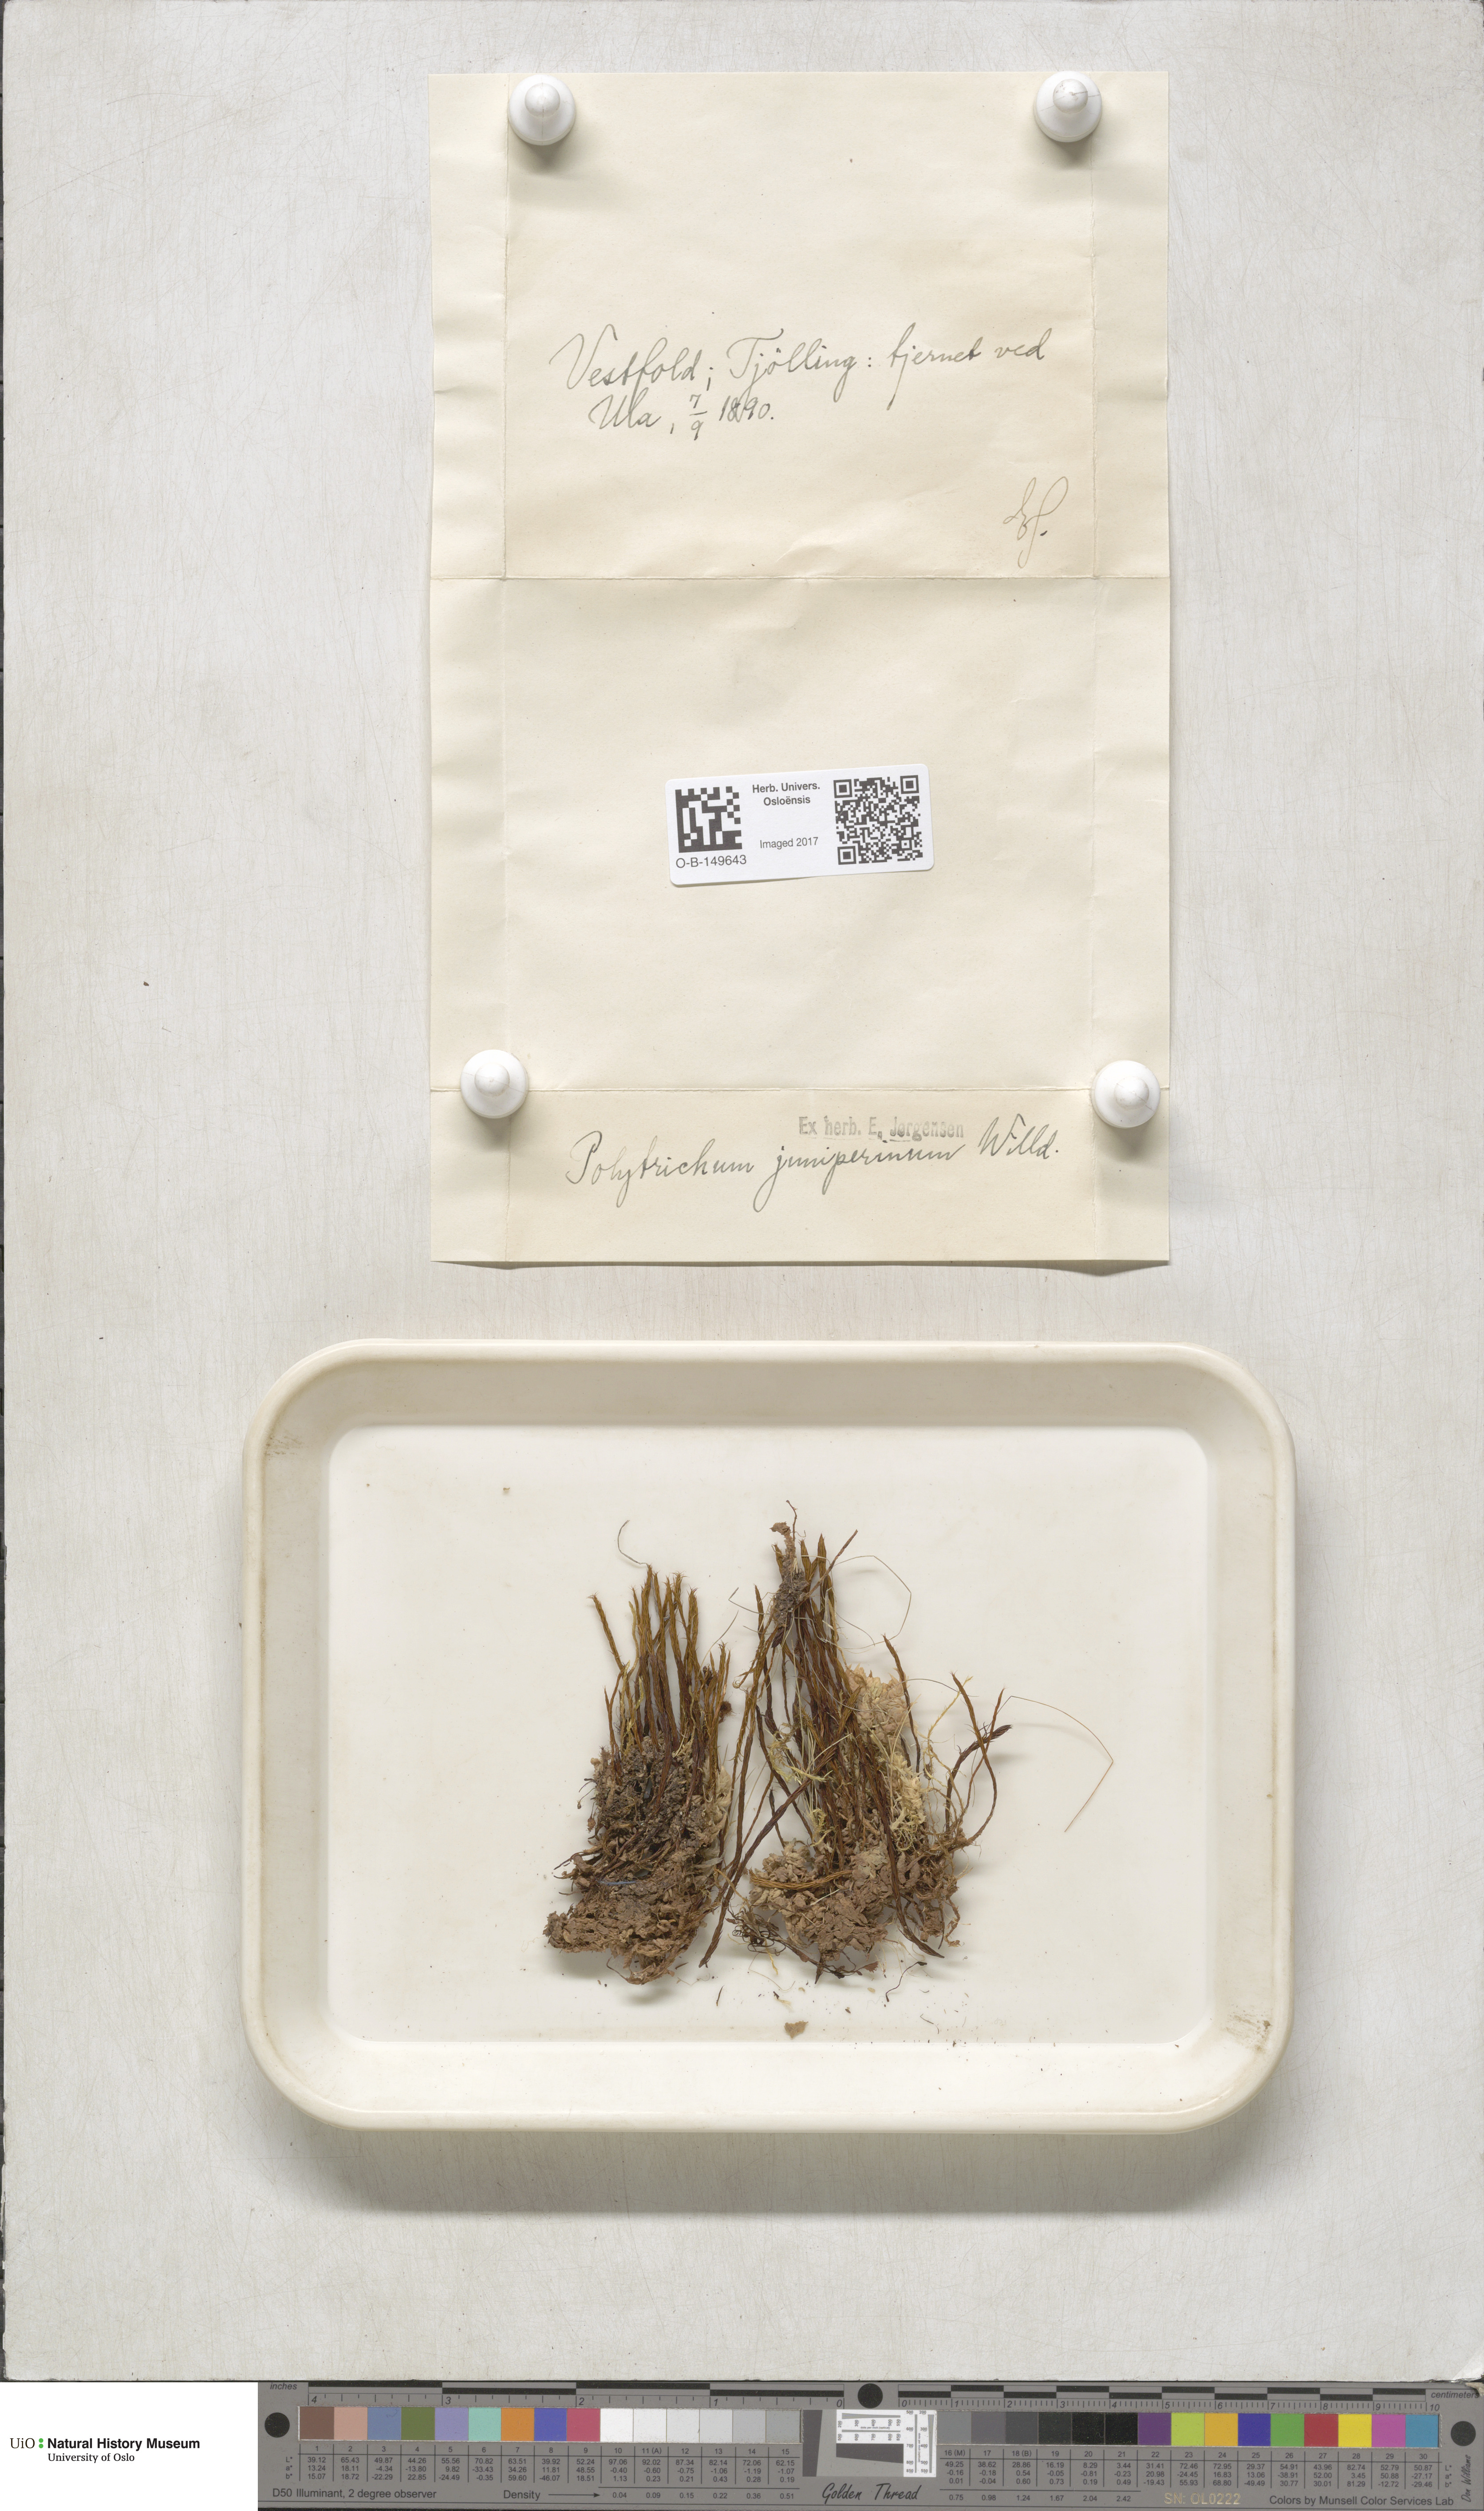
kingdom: Plantae
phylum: Bryophyta
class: Polytrichopsida
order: Polytrichales
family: Polytrichaceae
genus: Polytrichum
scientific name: Polytrichum juniperinum
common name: Juniper haircap moss
